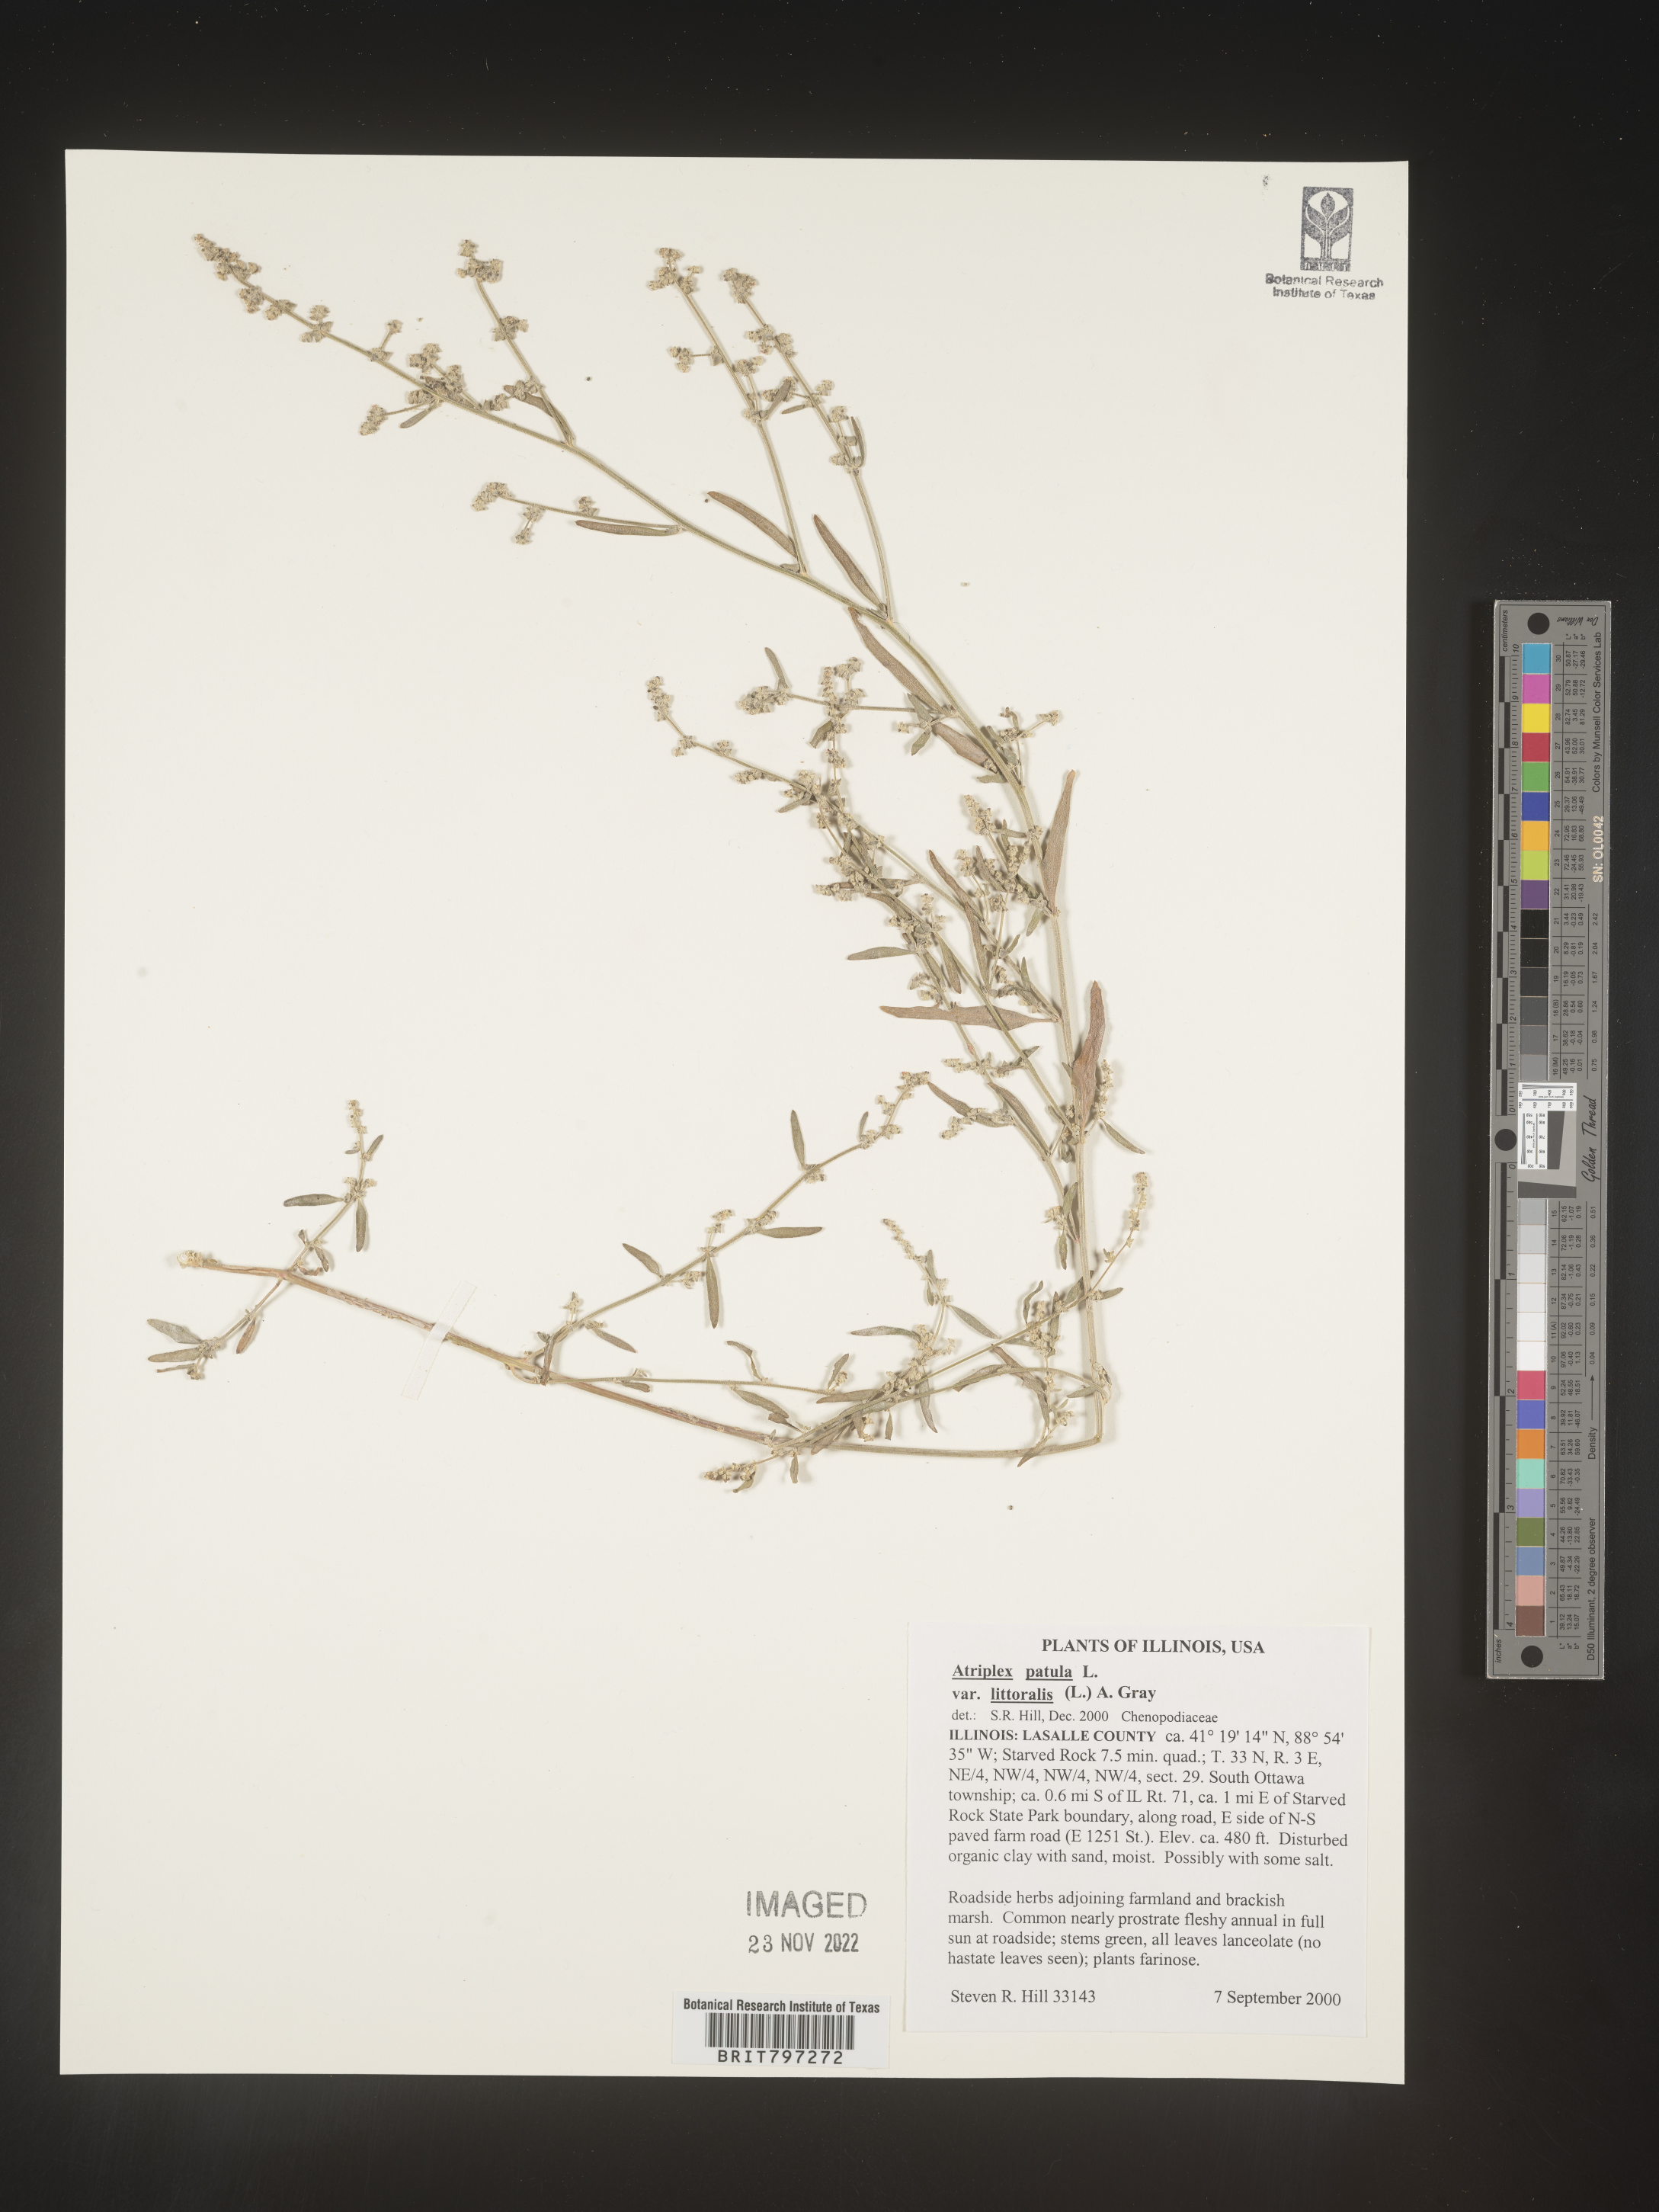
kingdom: Plantae
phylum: Tracheophyta
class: Magnoliopsida
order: Caryophyllales
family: Amaranthaceae
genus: Atriplex
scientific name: Atriplex
